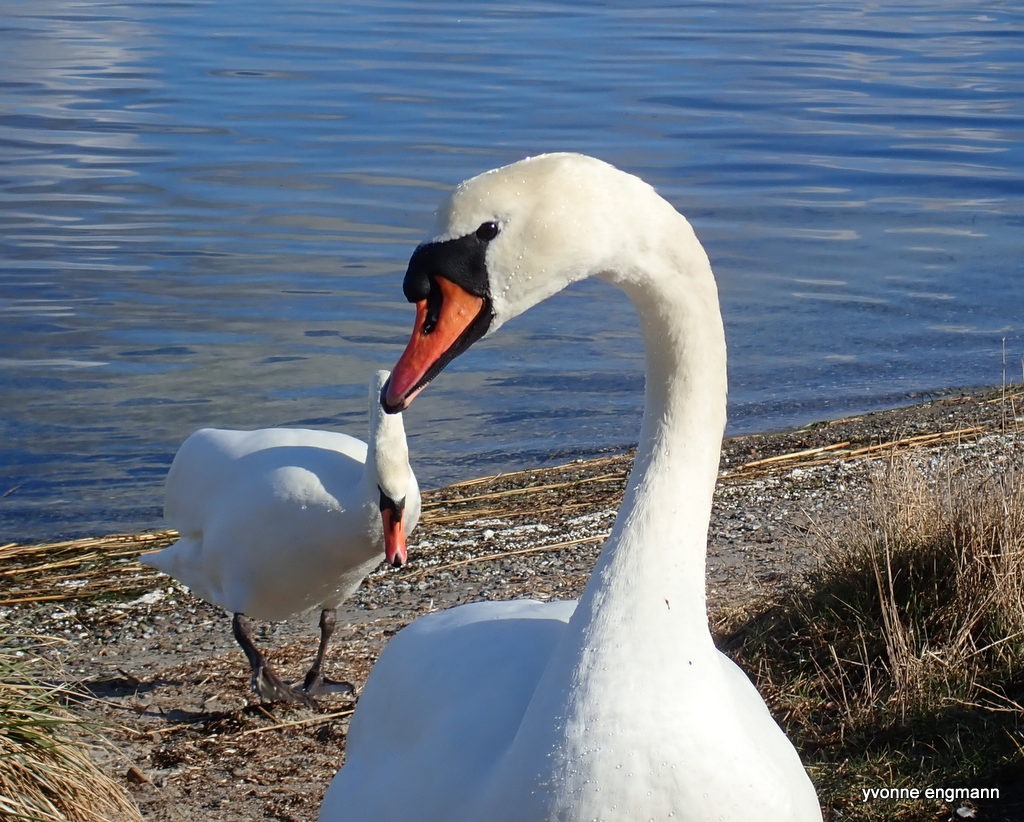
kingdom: Animalia
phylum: Chordata
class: Aves
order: Anseriformes
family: Anatidae
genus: Cygnus
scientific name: Cygnus olor
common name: Knopsvane
